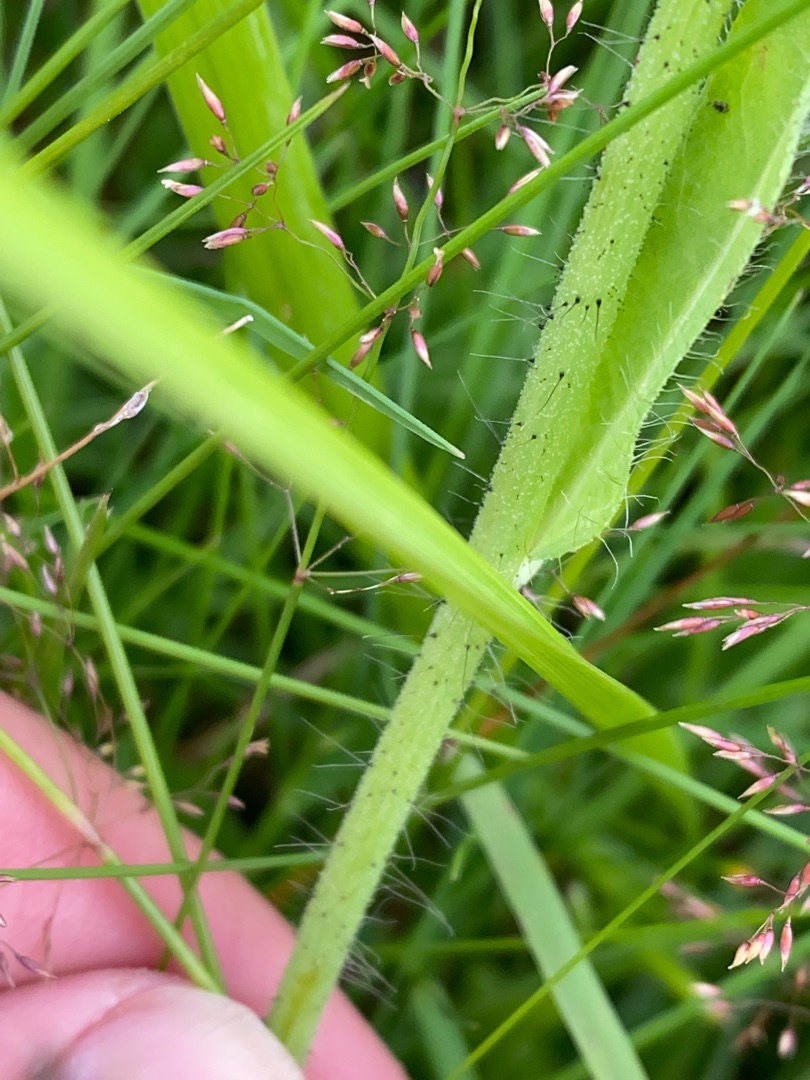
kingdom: Plantae
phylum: Tracheophyta
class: Magnoliopsida
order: Asterales
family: Asteraceae
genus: Pilosella
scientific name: Pilosella aurantiaca
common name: Pomerans-høgeurt
